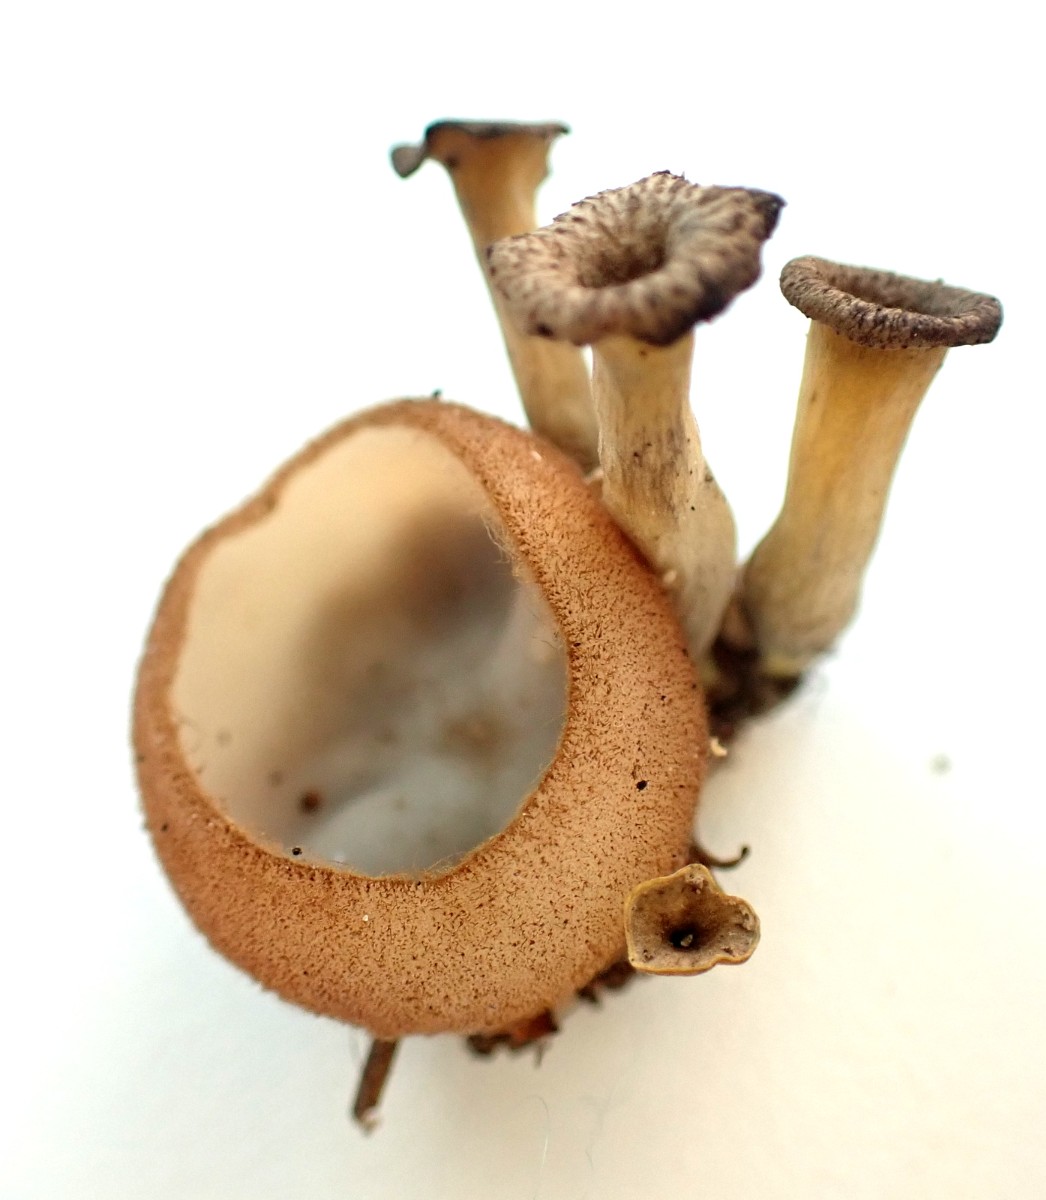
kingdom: Fungi
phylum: Ascomycota
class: Pezizomycetes
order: Pezizales
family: Pyronemataceae
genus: Humaria
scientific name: Humaria hemisphaerica
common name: halvkugleformet børstebæger
